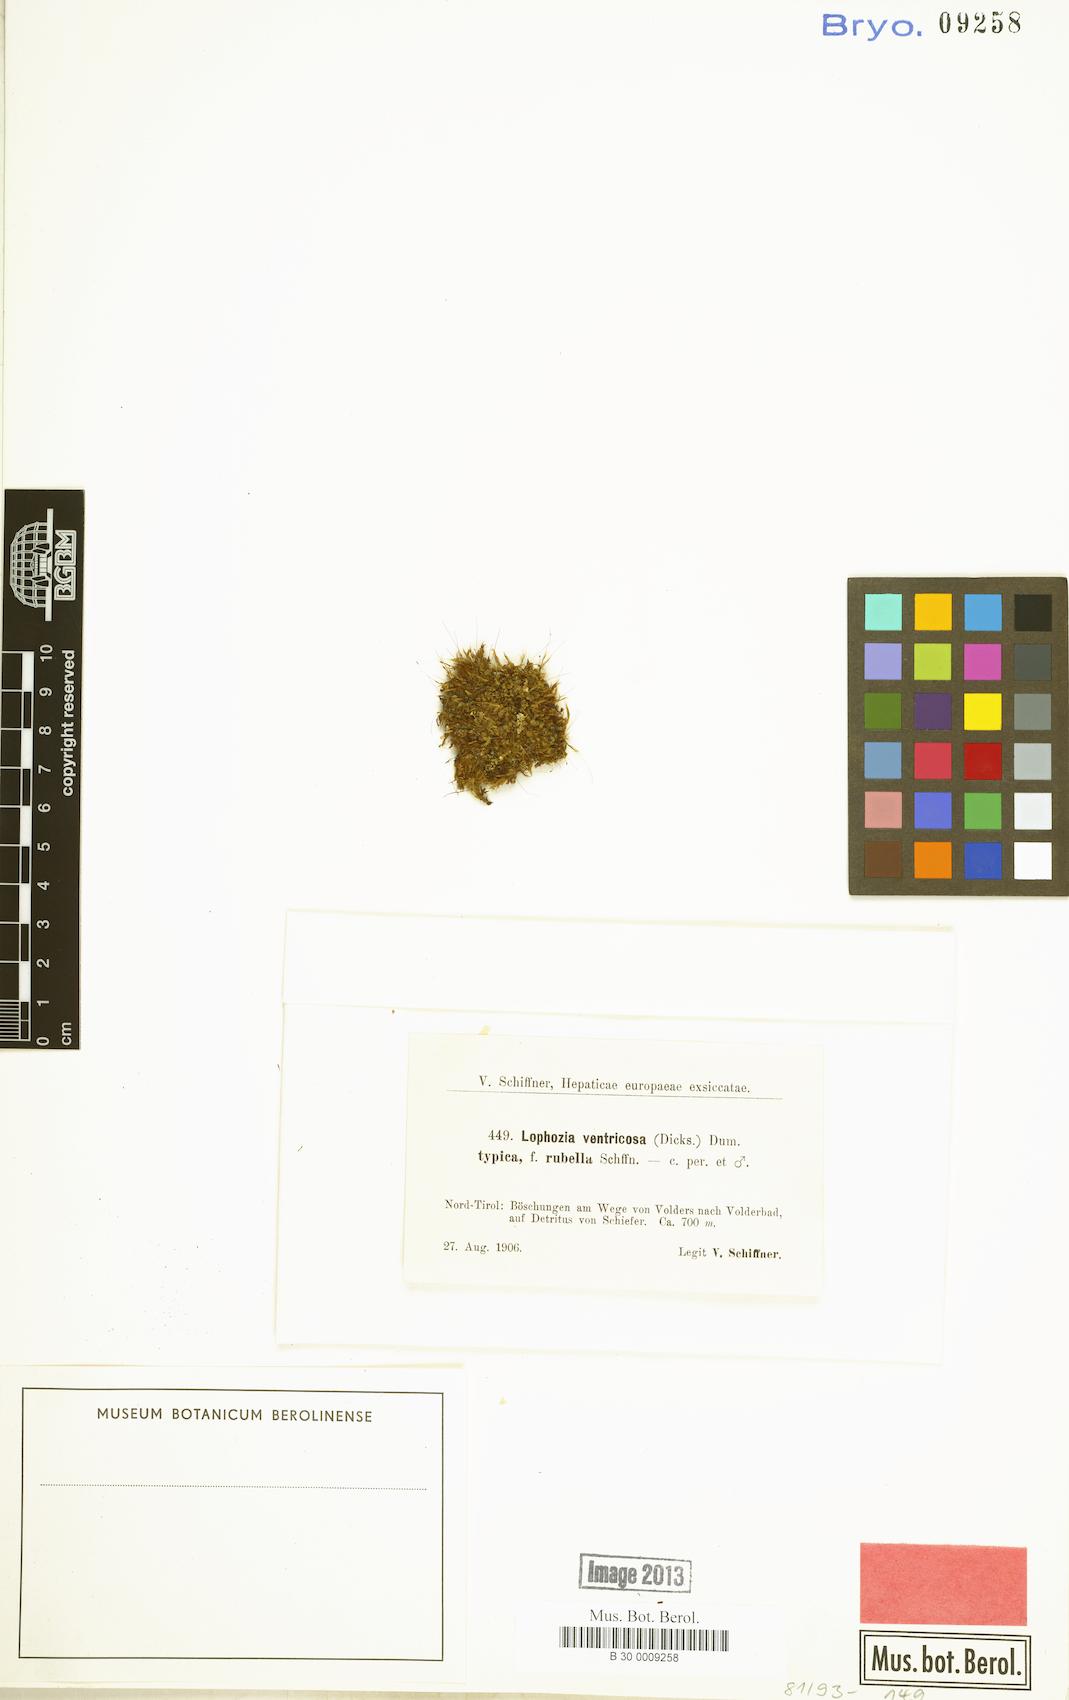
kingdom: Plantae
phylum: Marchantiophyta
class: Jungermanniopsida
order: Jungermanniales
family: Lophoziaceae
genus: Lophozia
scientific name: Lophozia ventricosa
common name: Tumid notchwort
